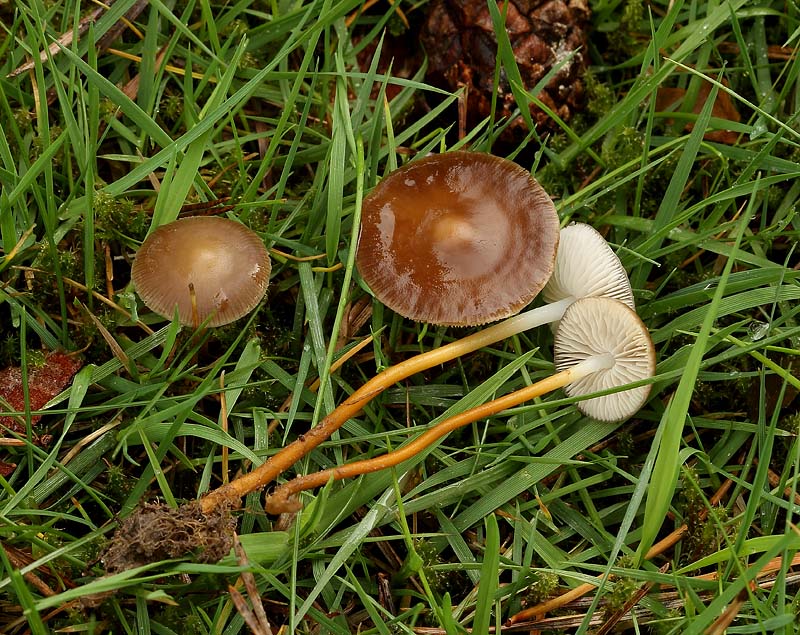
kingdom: Fungi
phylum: Basidiomycota
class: Agaricomycetes
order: Agaricales
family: Physalacriaceae
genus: Strobilurus
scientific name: Strobilurus tenacellus
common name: sommer-koglehat
